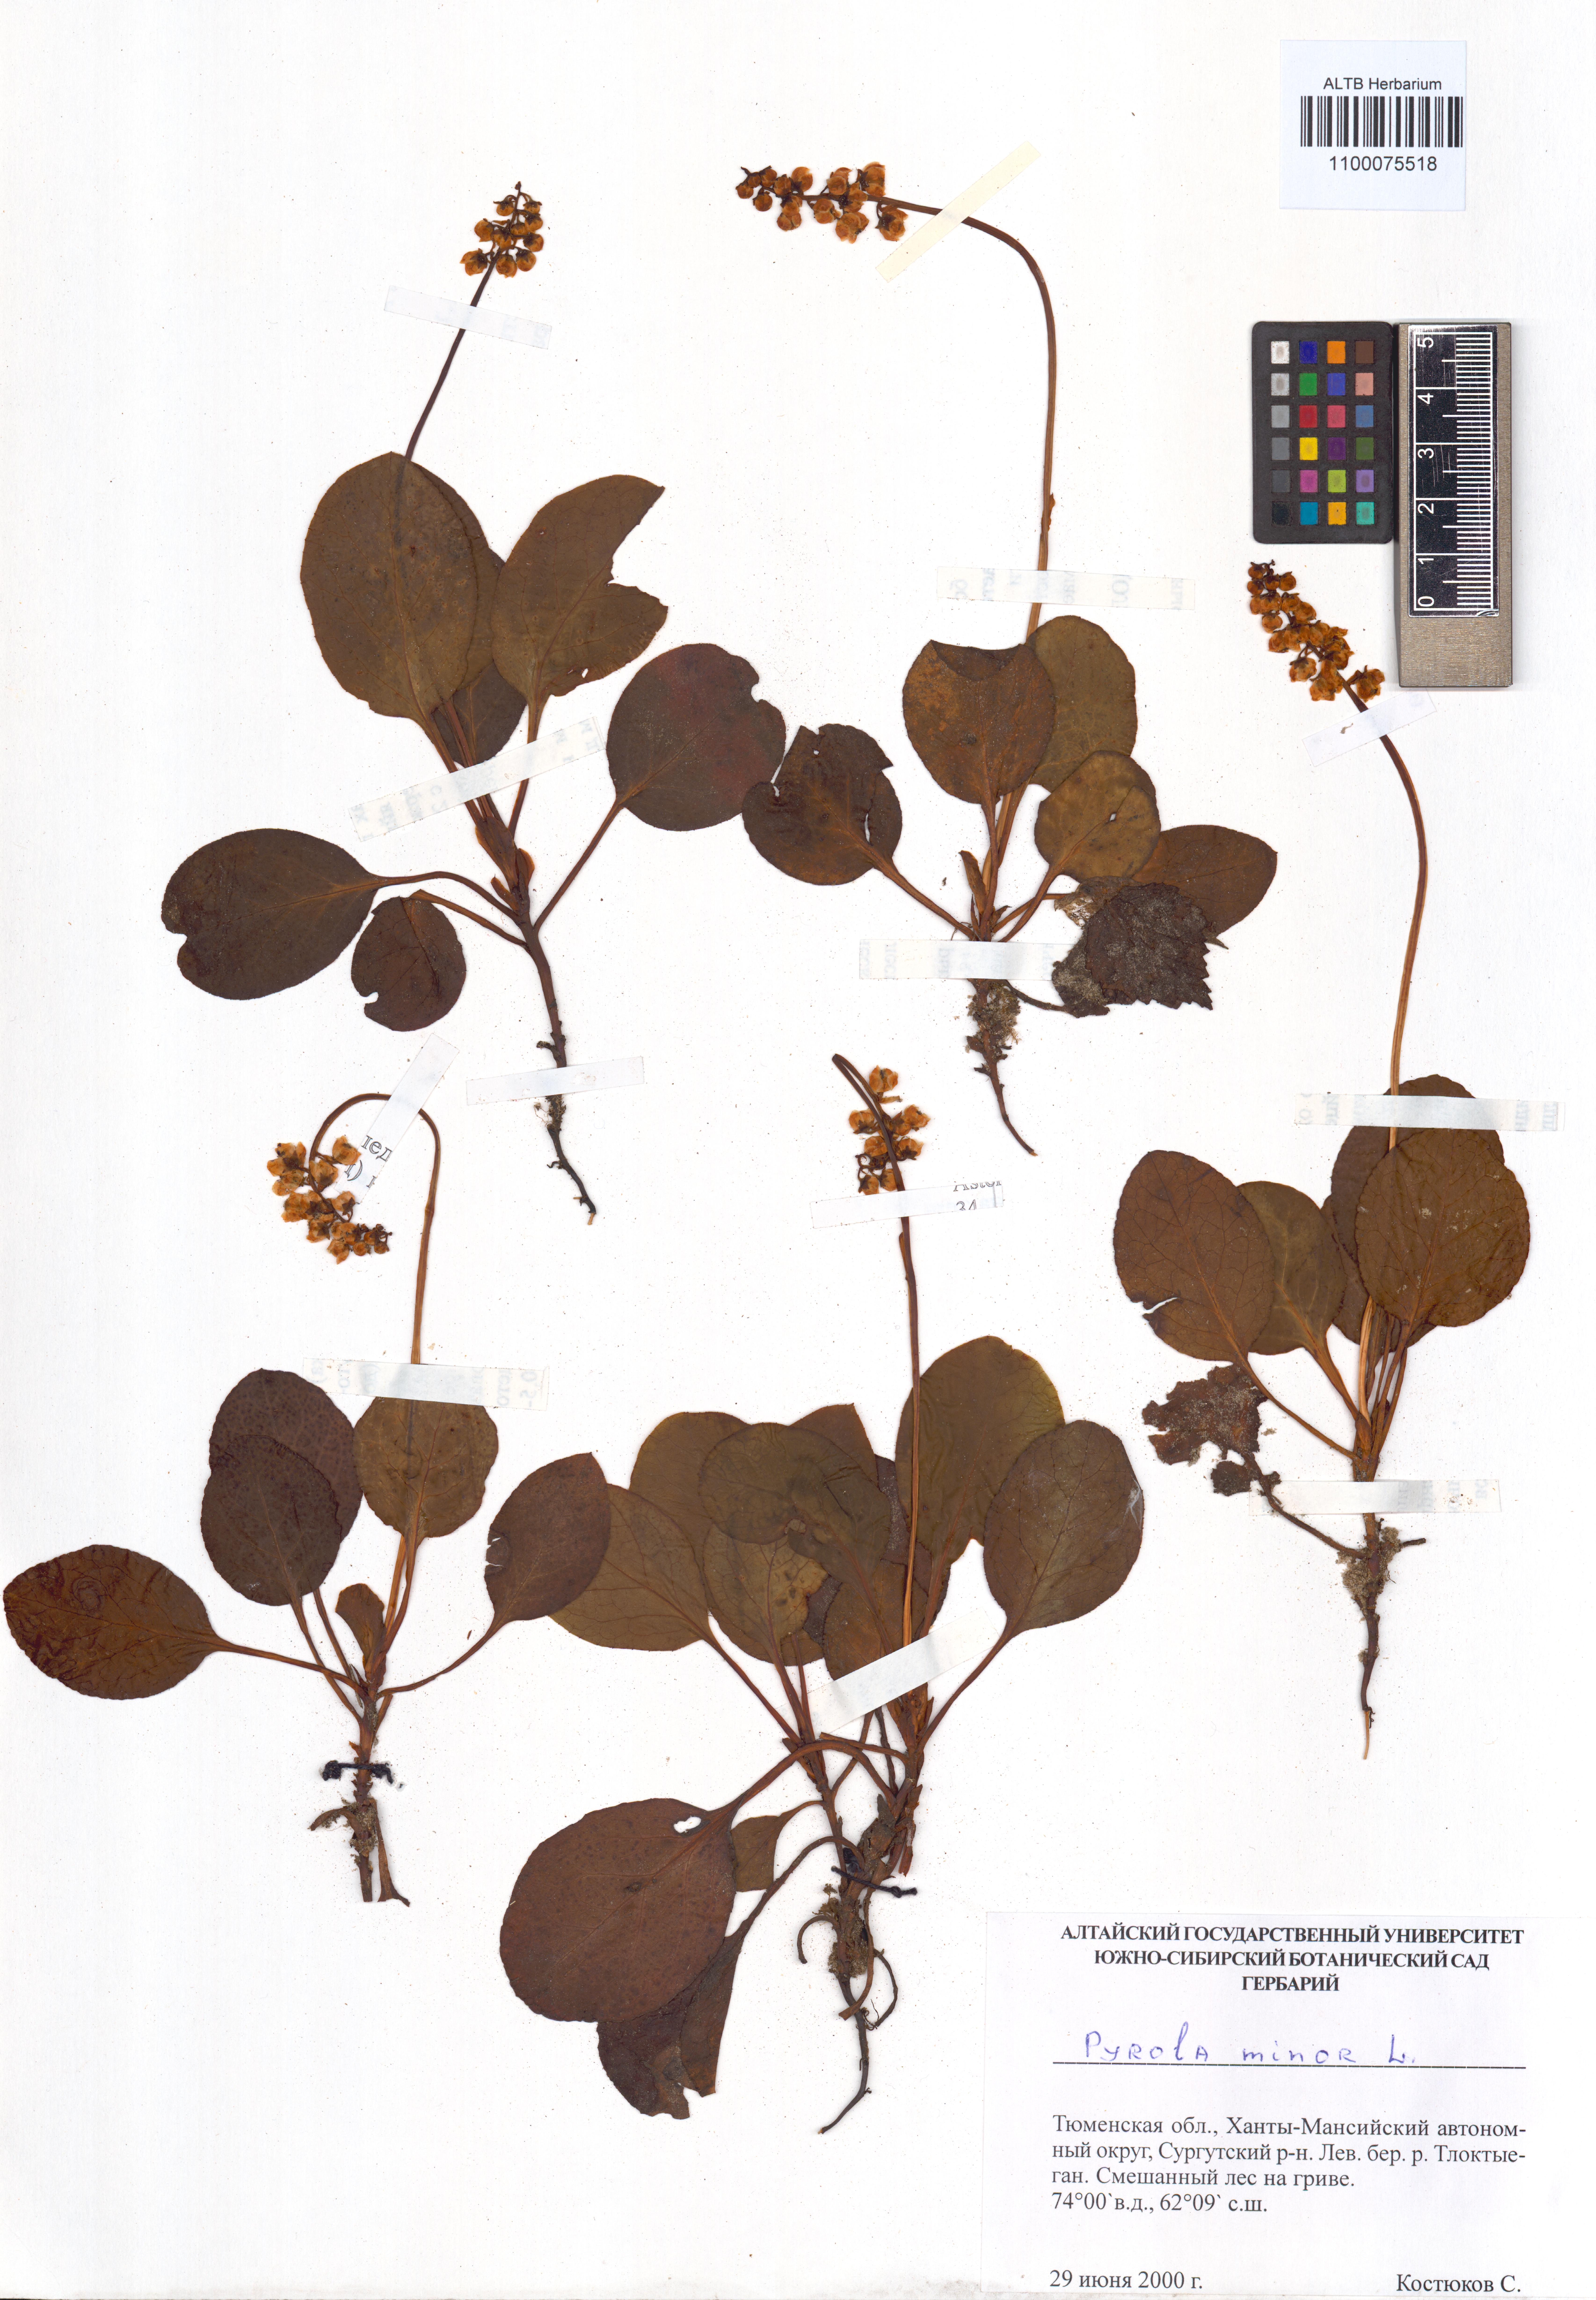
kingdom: Plantae
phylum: Tracheophyta
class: Magnoliopsida
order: Ericales
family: Ericaceae
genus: Pyrola
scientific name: Pyrola minor
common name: Common wintergreen
